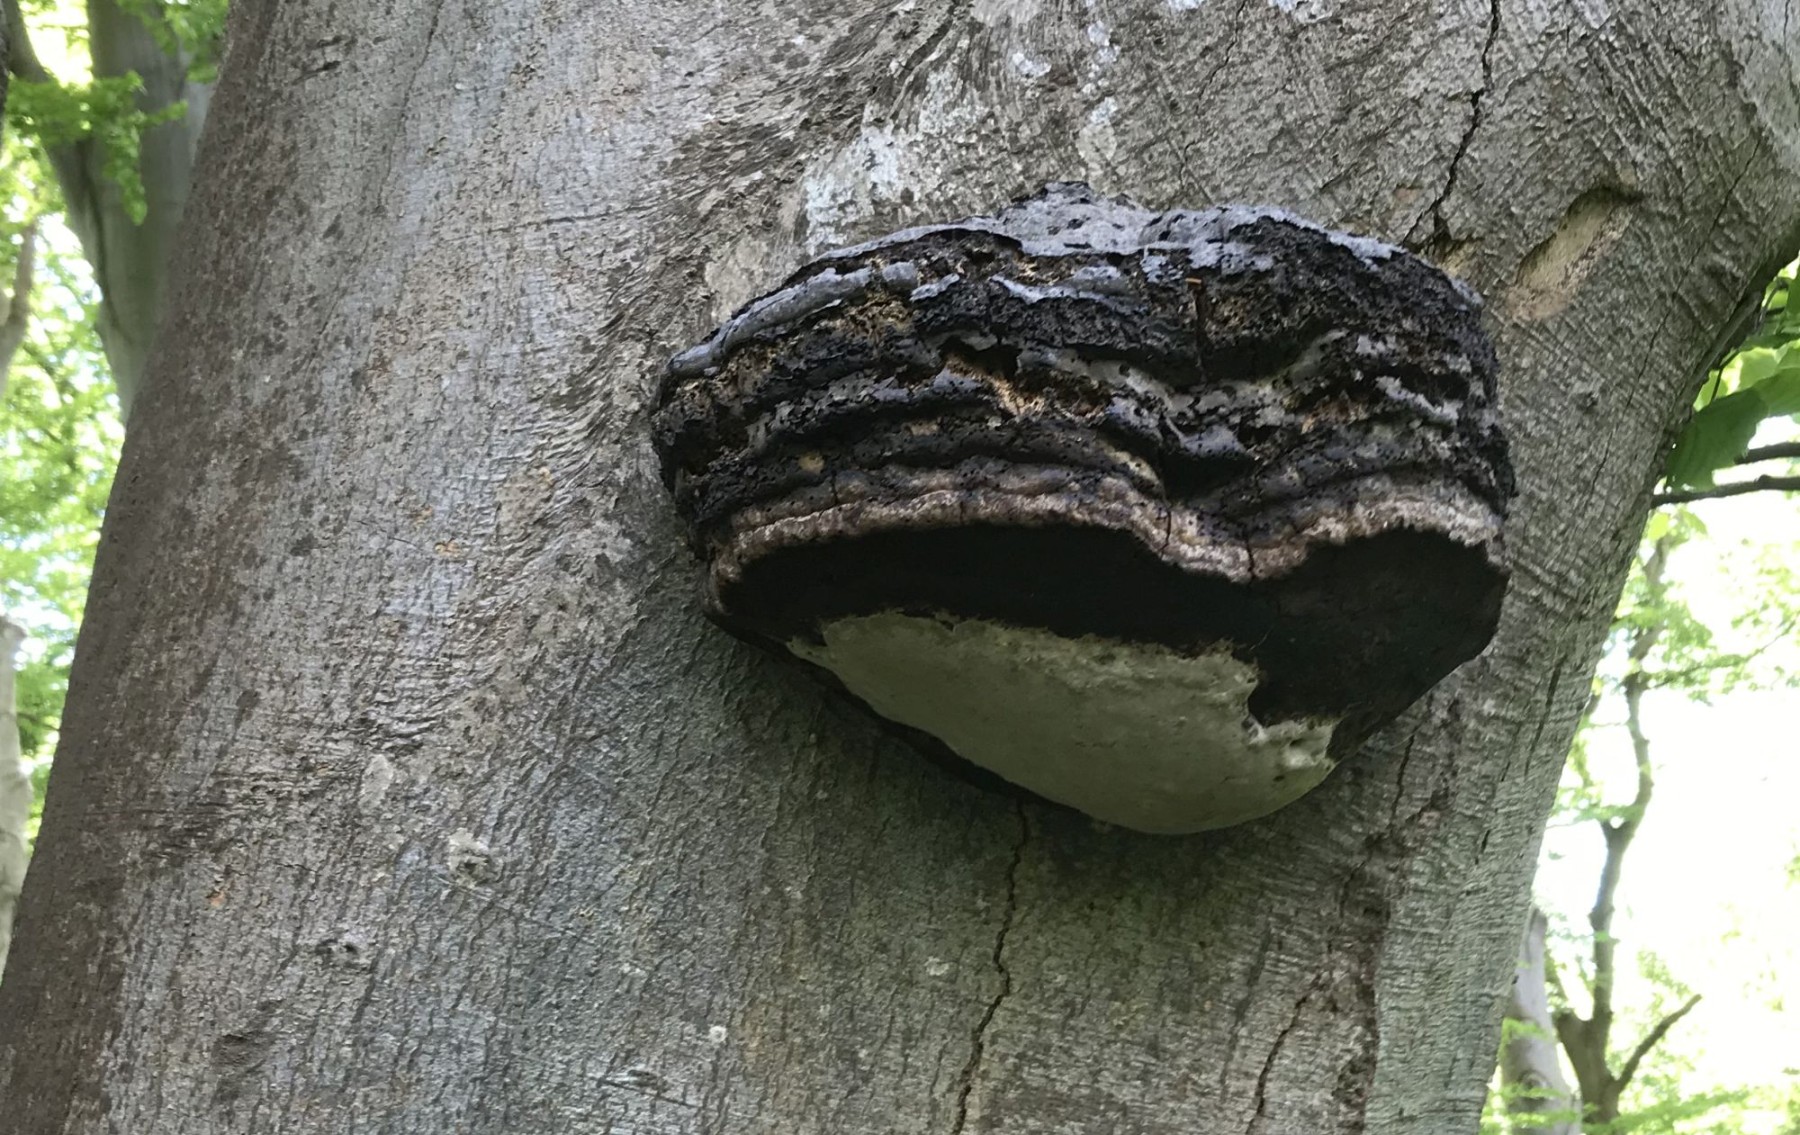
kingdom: Fungi
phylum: Basidiomycota
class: Agaricomycetes
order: Polyporales
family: Polyporaceae
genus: Fomes
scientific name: Fomes fomentarius
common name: tøndersvamp
